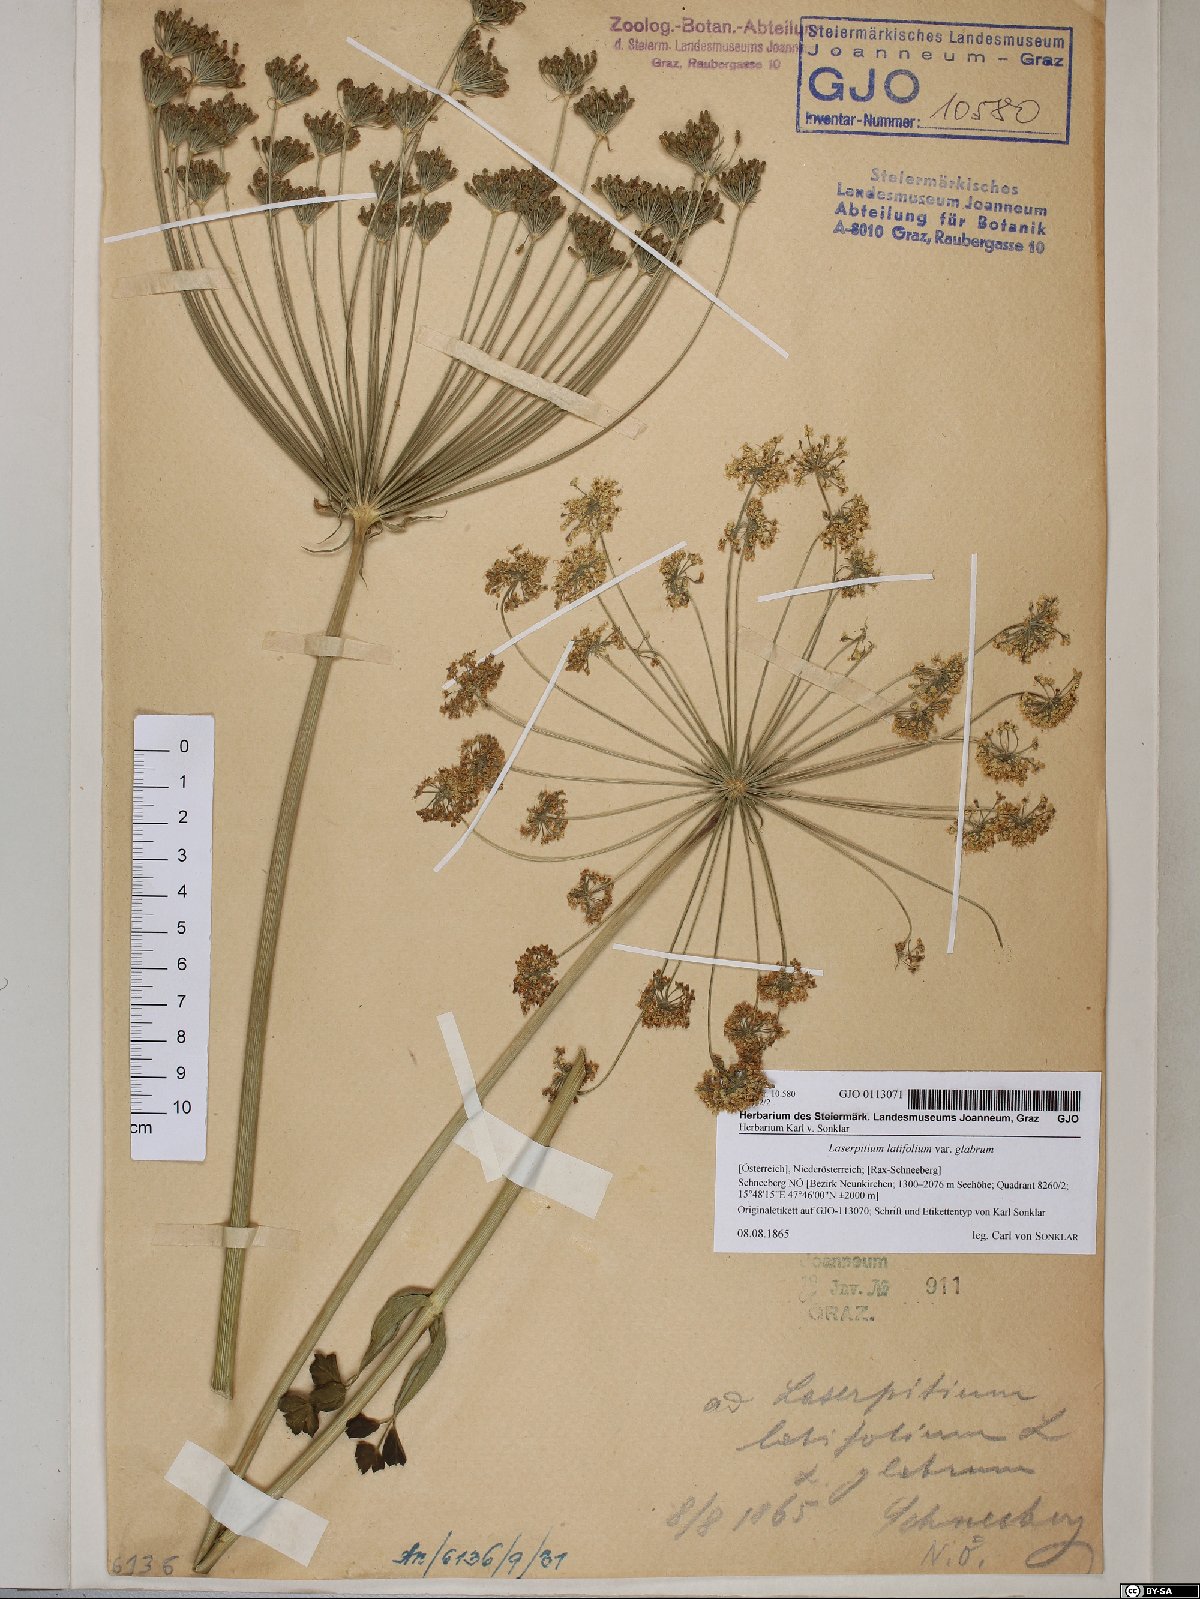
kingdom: Plantae
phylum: Tracheophyta
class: Magnoliopsida
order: Apiales
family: Apiaceae
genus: Laserpitium
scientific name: Laserpitium latifolium
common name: Broadleaf sermountain
